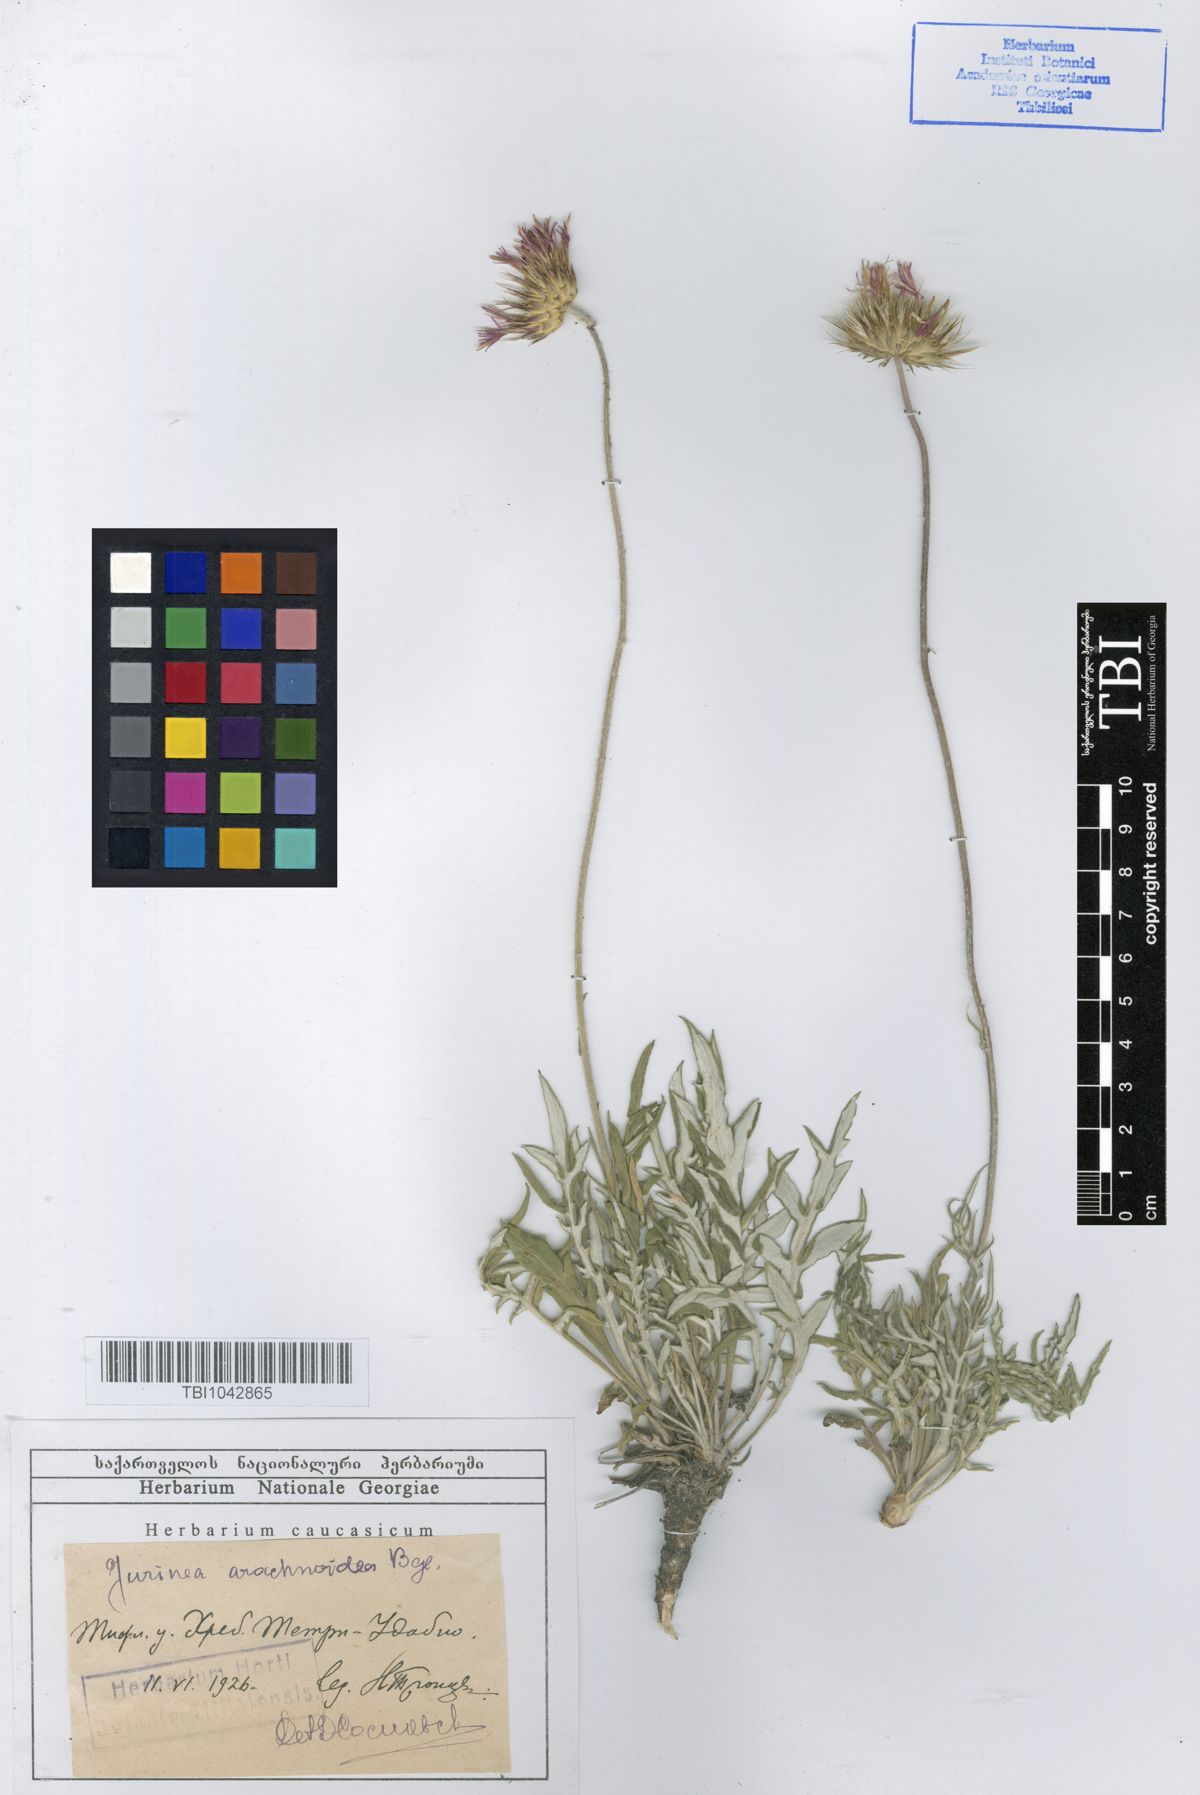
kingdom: Plantae
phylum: Tracheophyta
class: Magnoliopsida
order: Asterales
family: Asteraceae
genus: Jurinea
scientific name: Jurinea blanda
